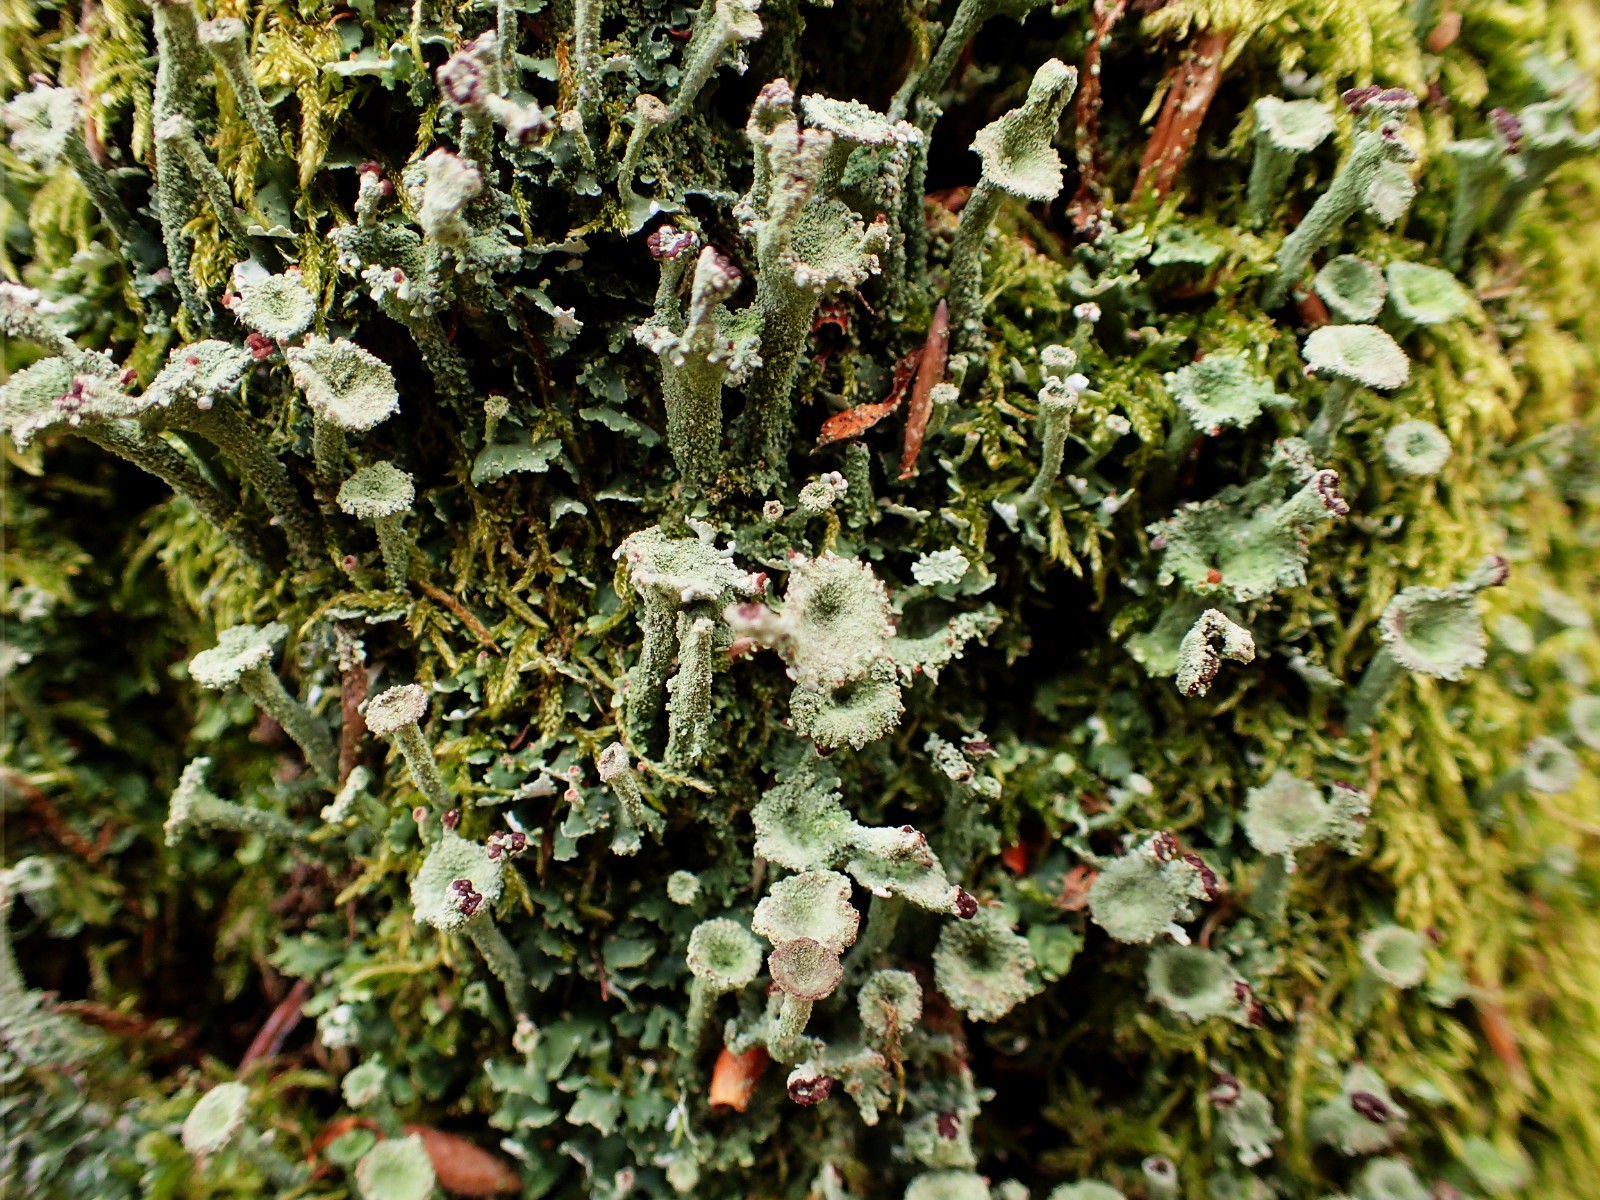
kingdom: Fungi
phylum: Ascomycota
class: Lecanoromycetes
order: Lecanorales
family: Cladoniaceae
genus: Cladonia
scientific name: Cladonia
